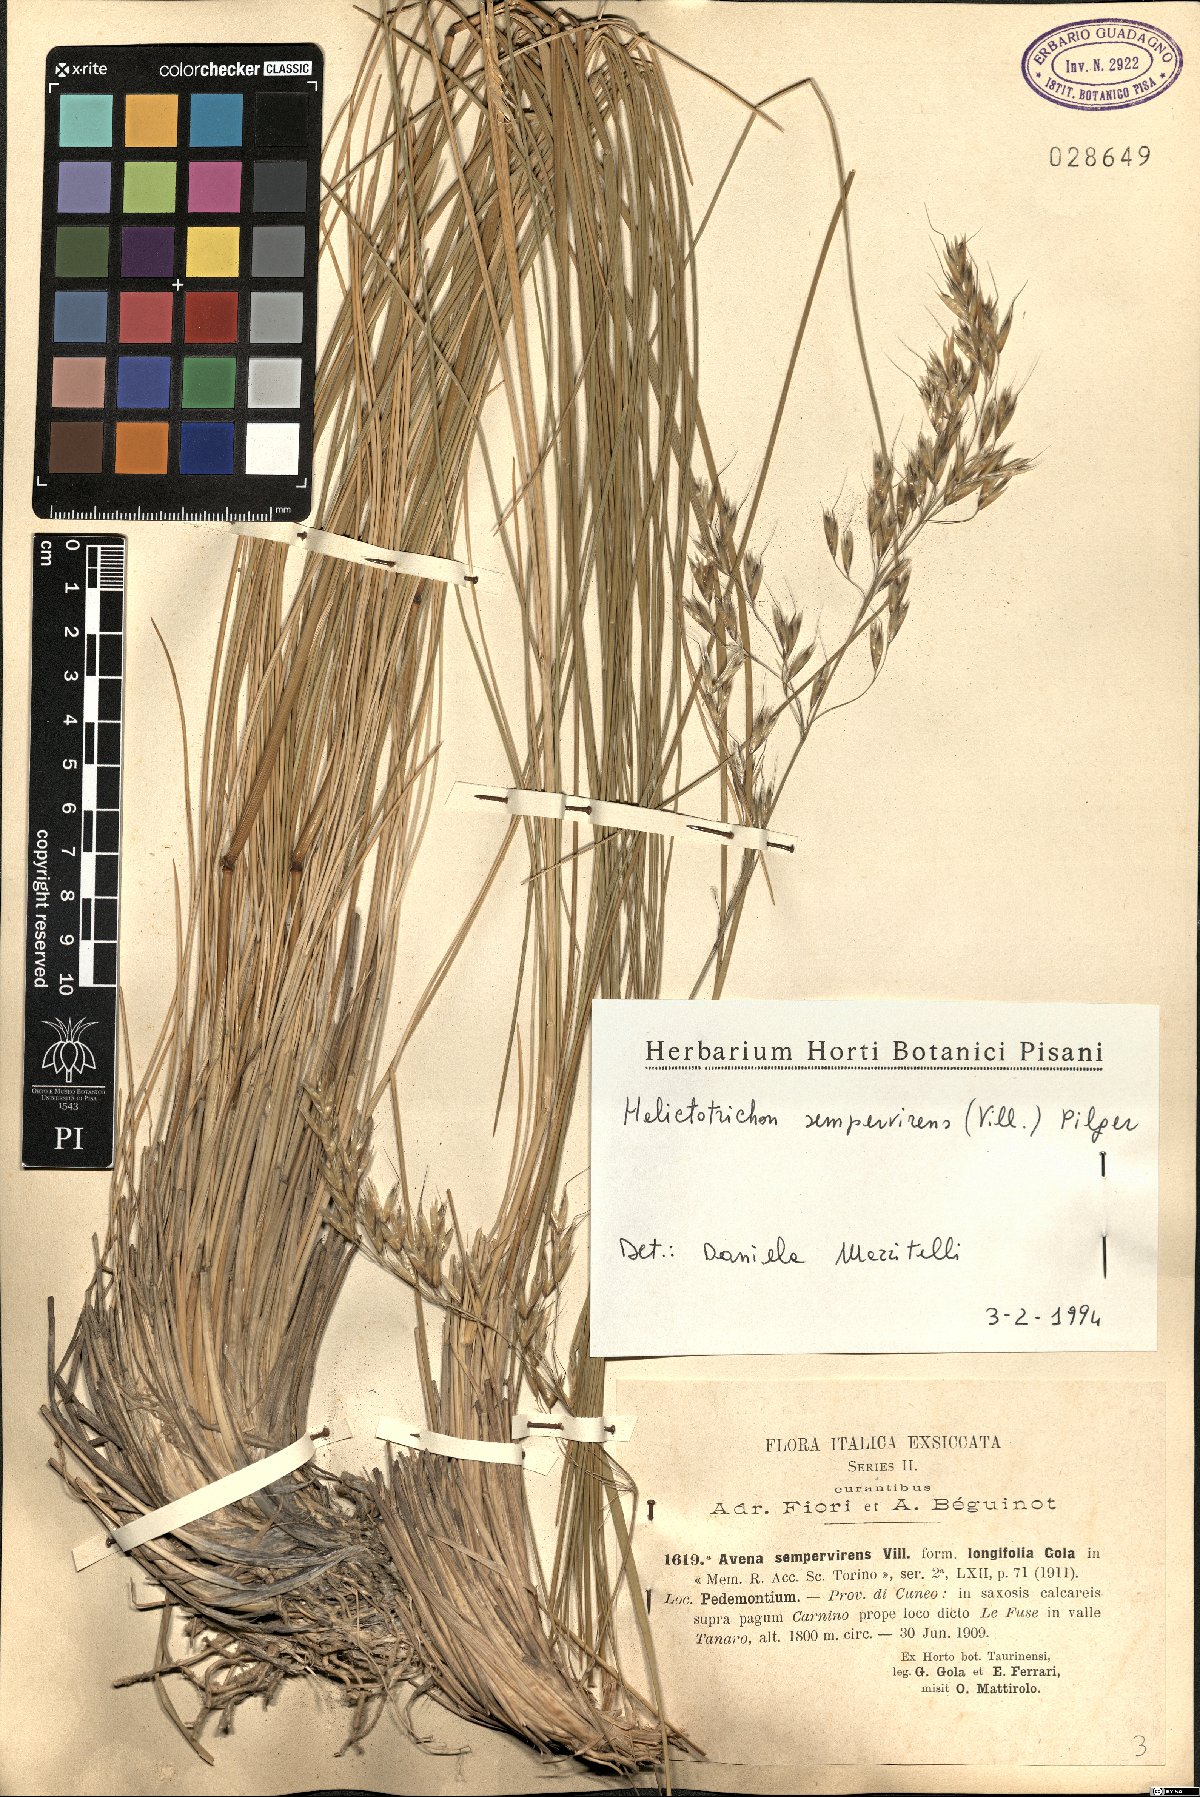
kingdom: Plantae
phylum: Tracheophyta
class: Liliopsida
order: Poales
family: Poaceae
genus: Helictotrichon
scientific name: Helictotrichon sempervirens
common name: Blue oat-grass
